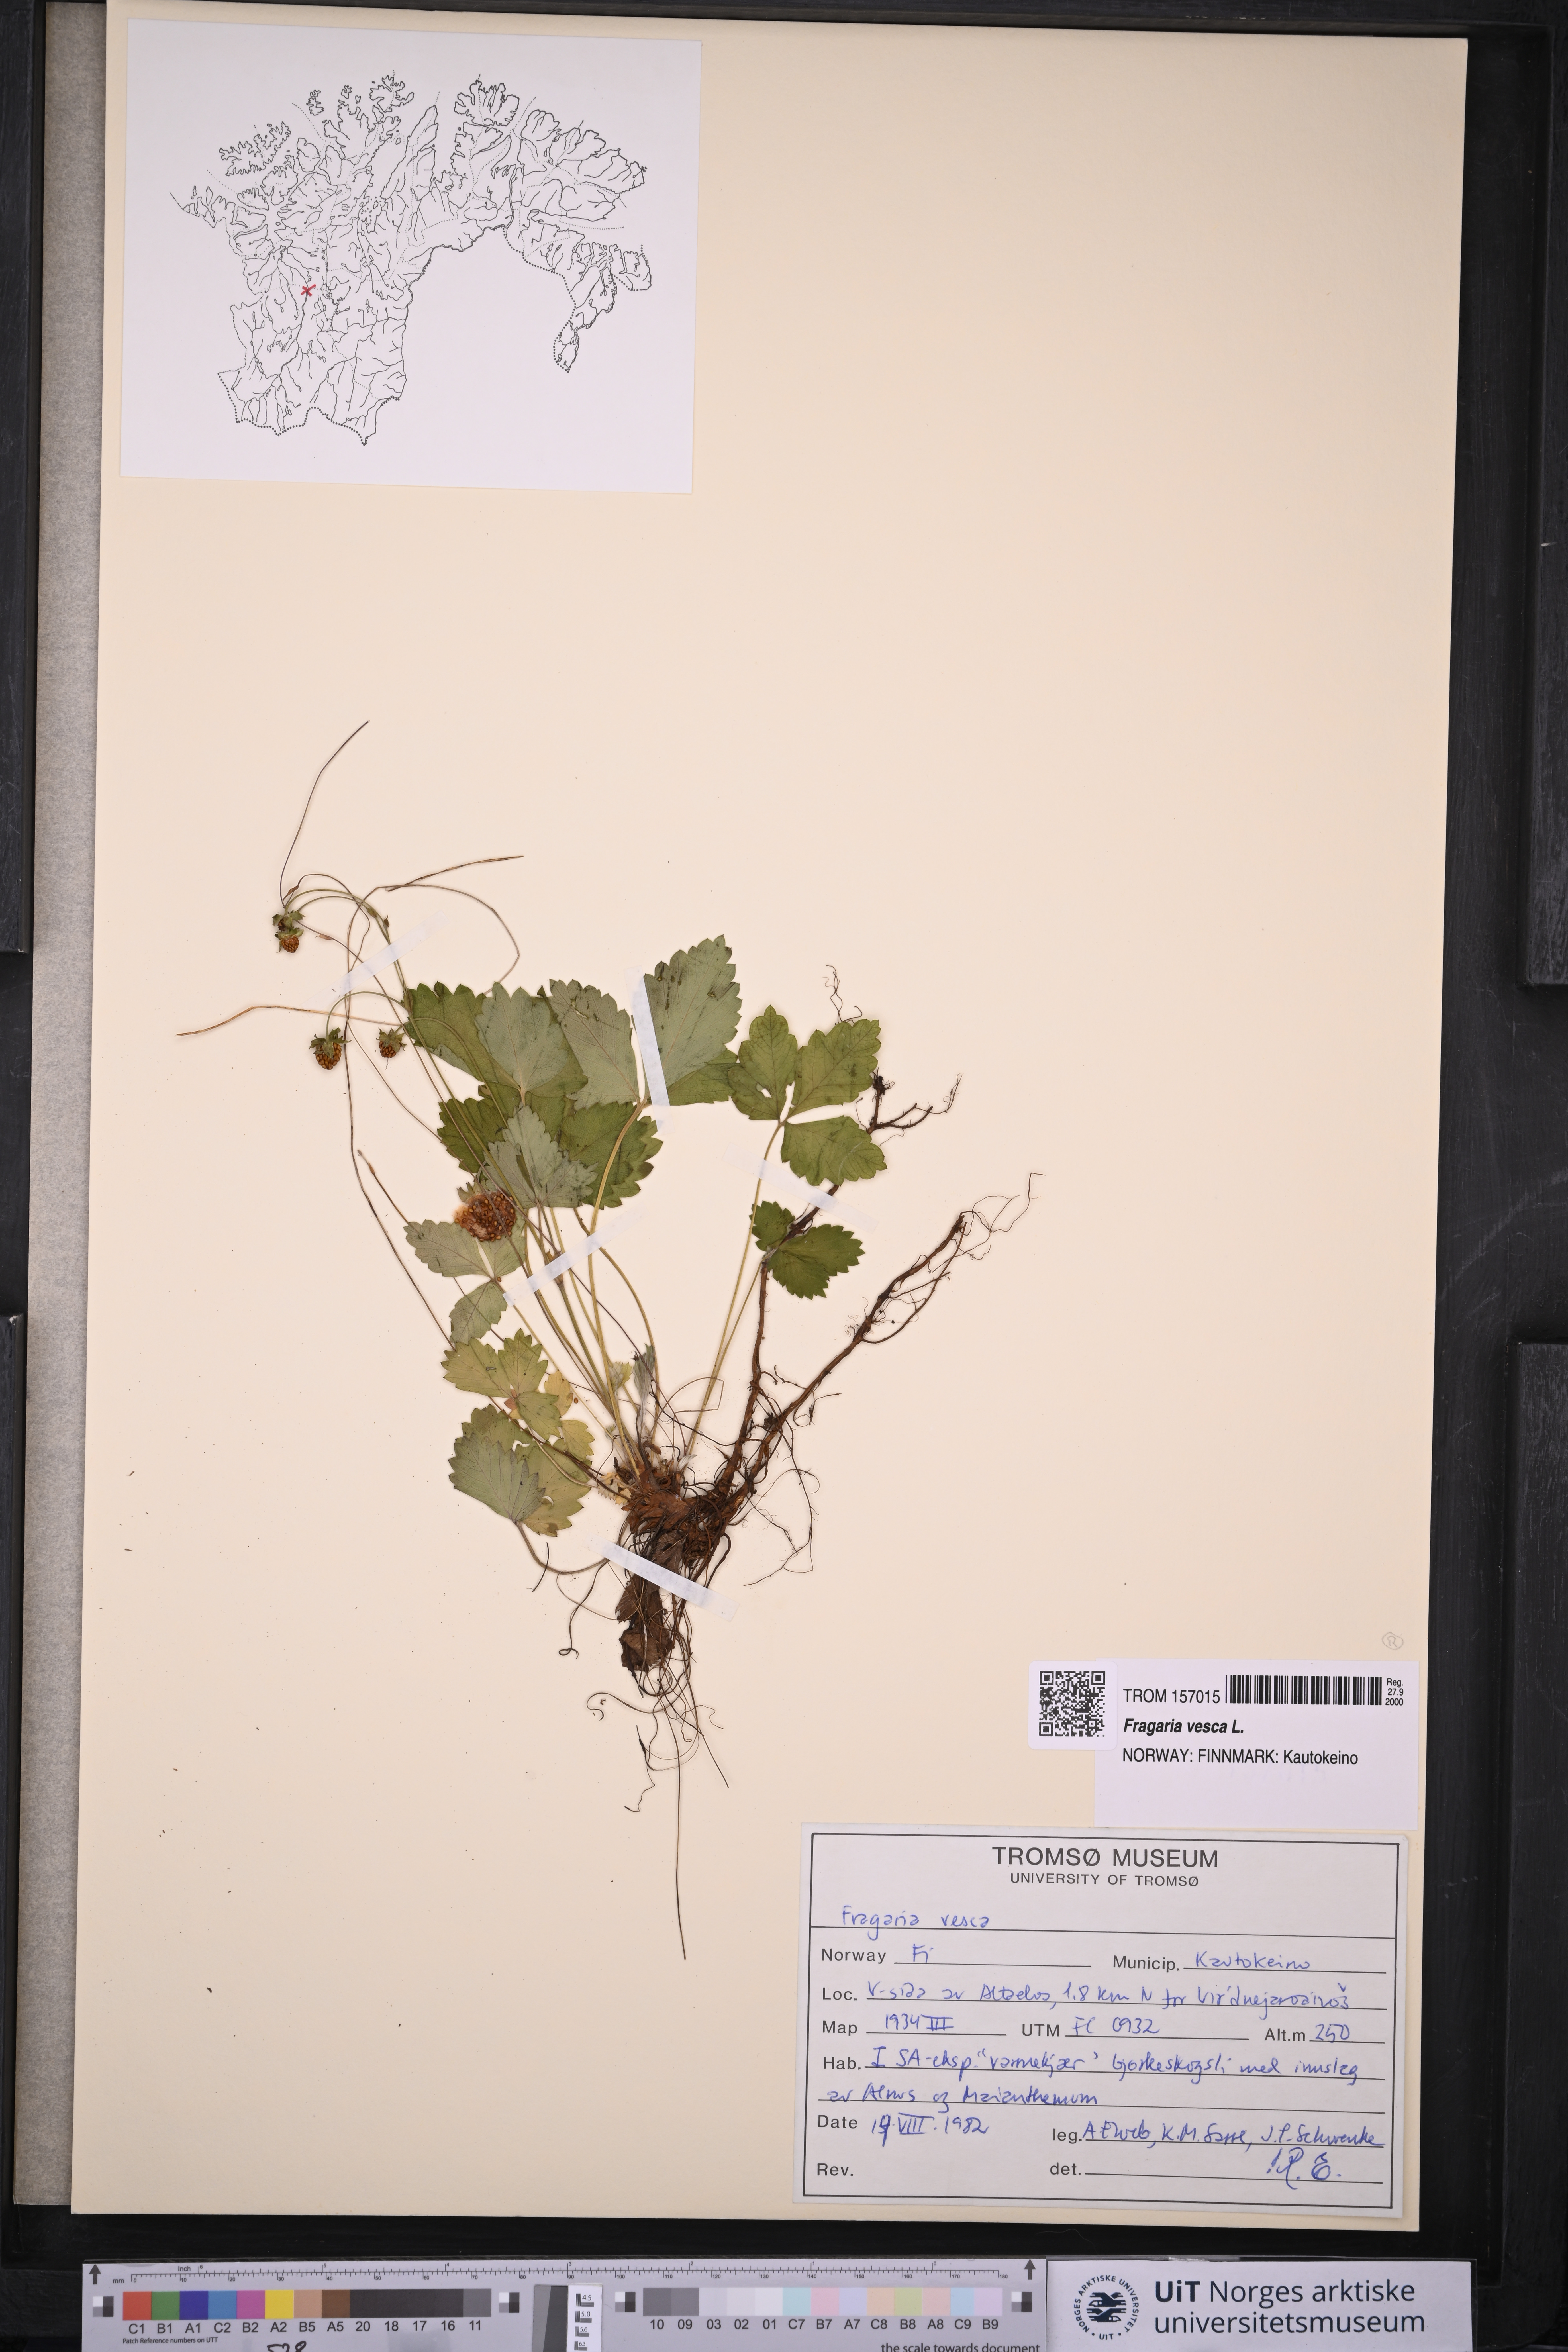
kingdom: Plantae
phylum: Tracheophyta
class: Magnoliopsida
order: Rosales
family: Rosaceae
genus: Fragaria
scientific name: Fragaria vesca
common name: Wild strawberry
